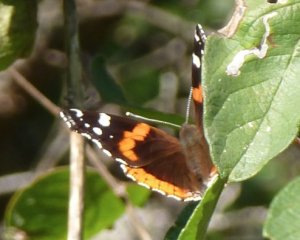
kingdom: Animalia
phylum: Arthropoda
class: Insecta
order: Lepidoptera
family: Nymphalidae
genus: Vanessa
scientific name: Vanessa atalanta
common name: Red Admiral
